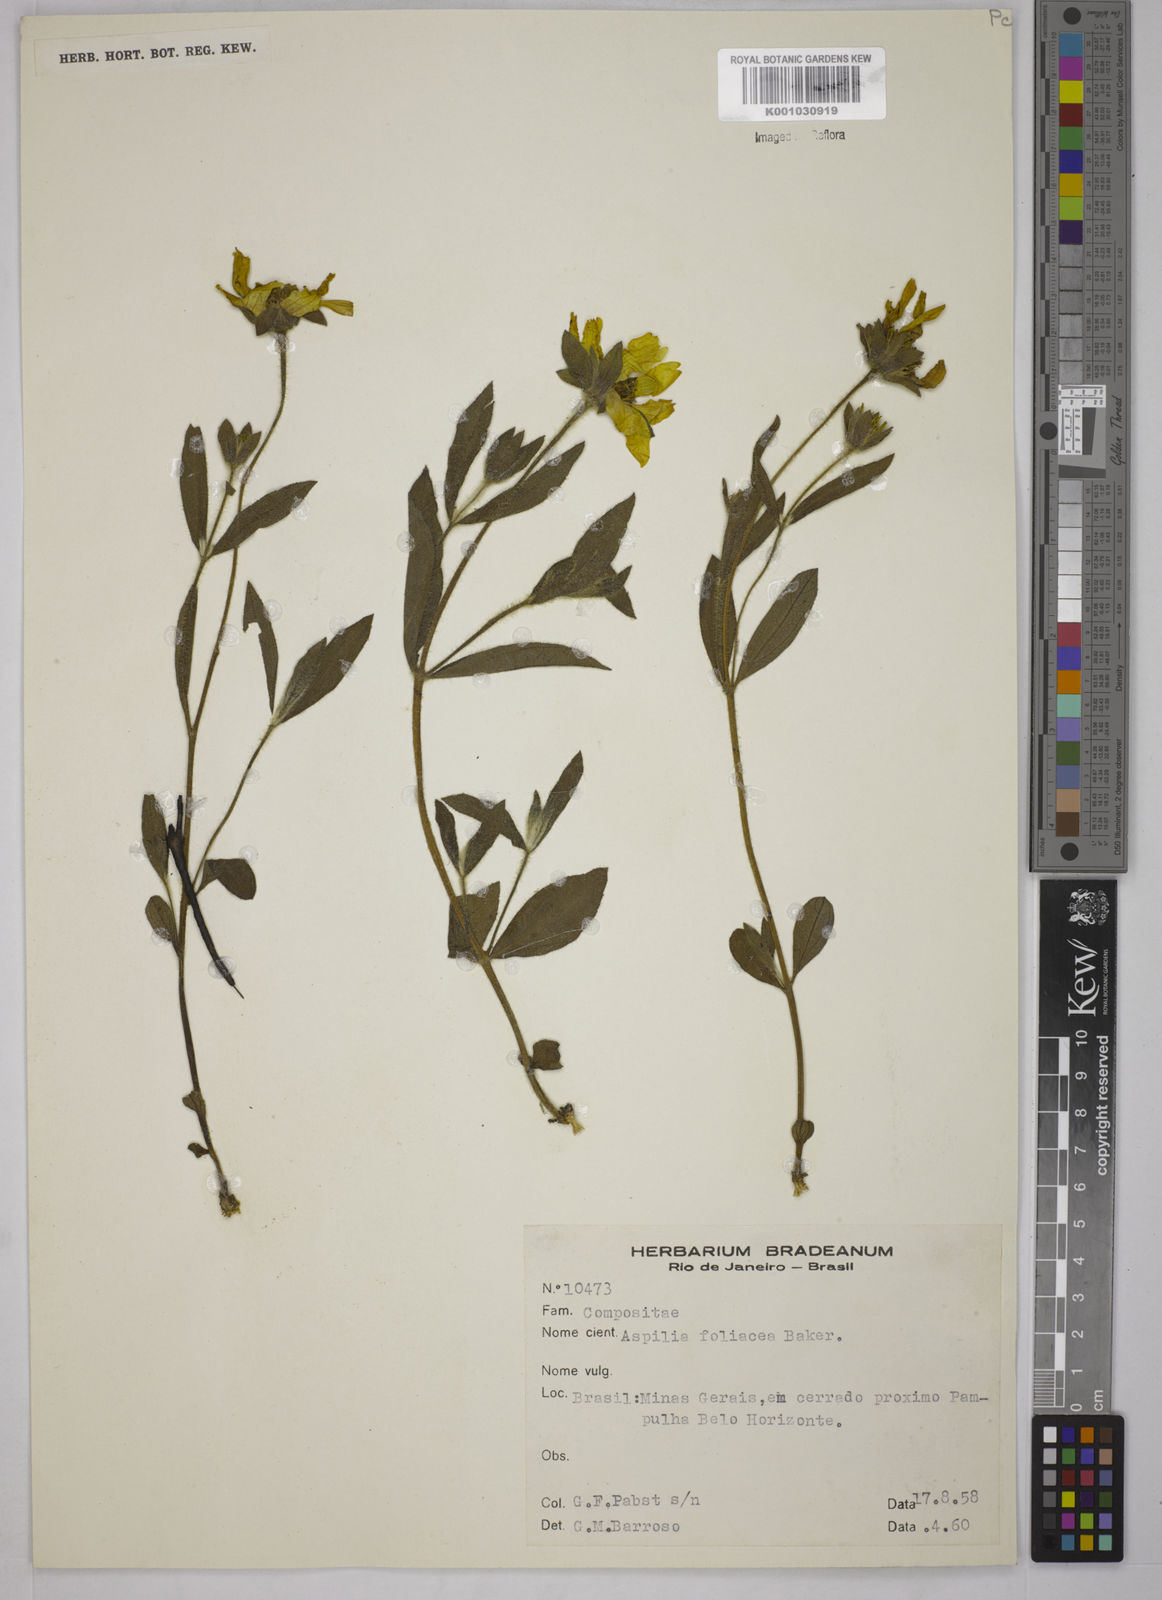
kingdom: Plantae
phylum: Tracheophyta
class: Magnoliopsida
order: Asterales
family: Asteraceae
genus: Wedelia
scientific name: Wedelia foliacea
